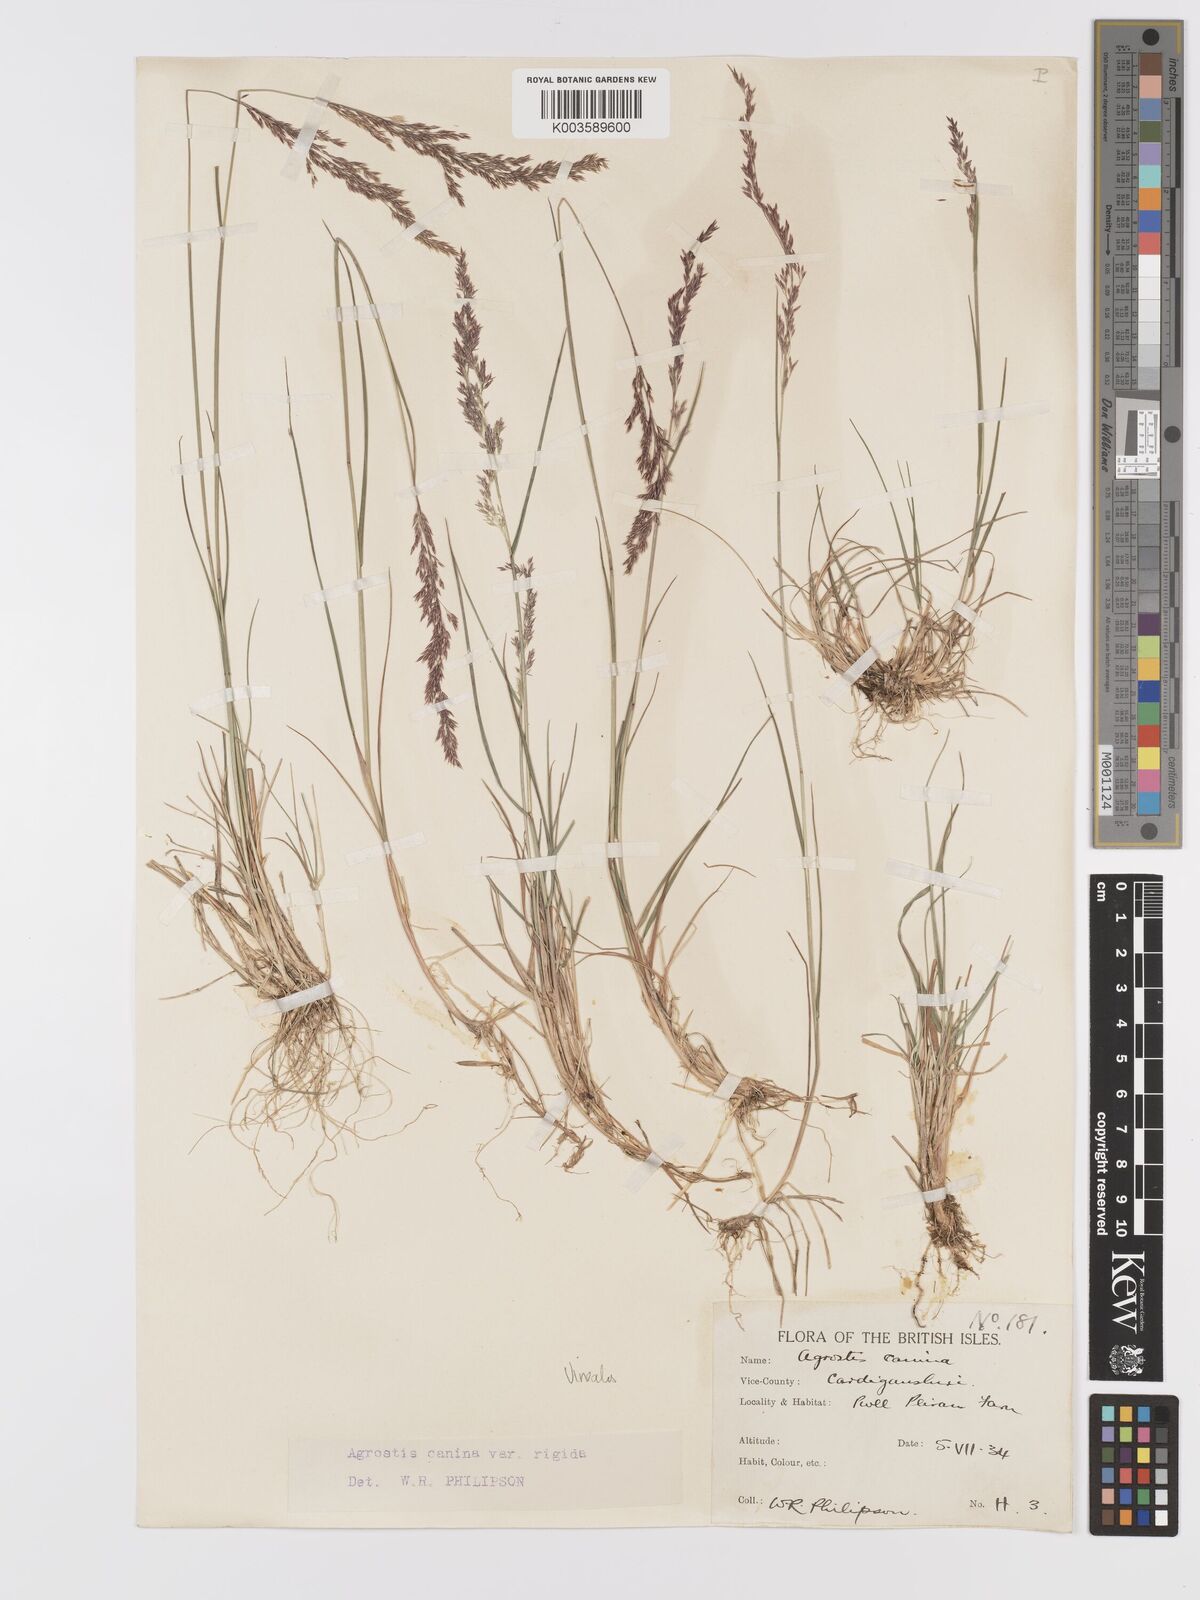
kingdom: Plantae
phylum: Tracheophyta
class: Liliopsida
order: Poales
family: Poaceae
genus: Agrostis
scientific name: Agrostis
